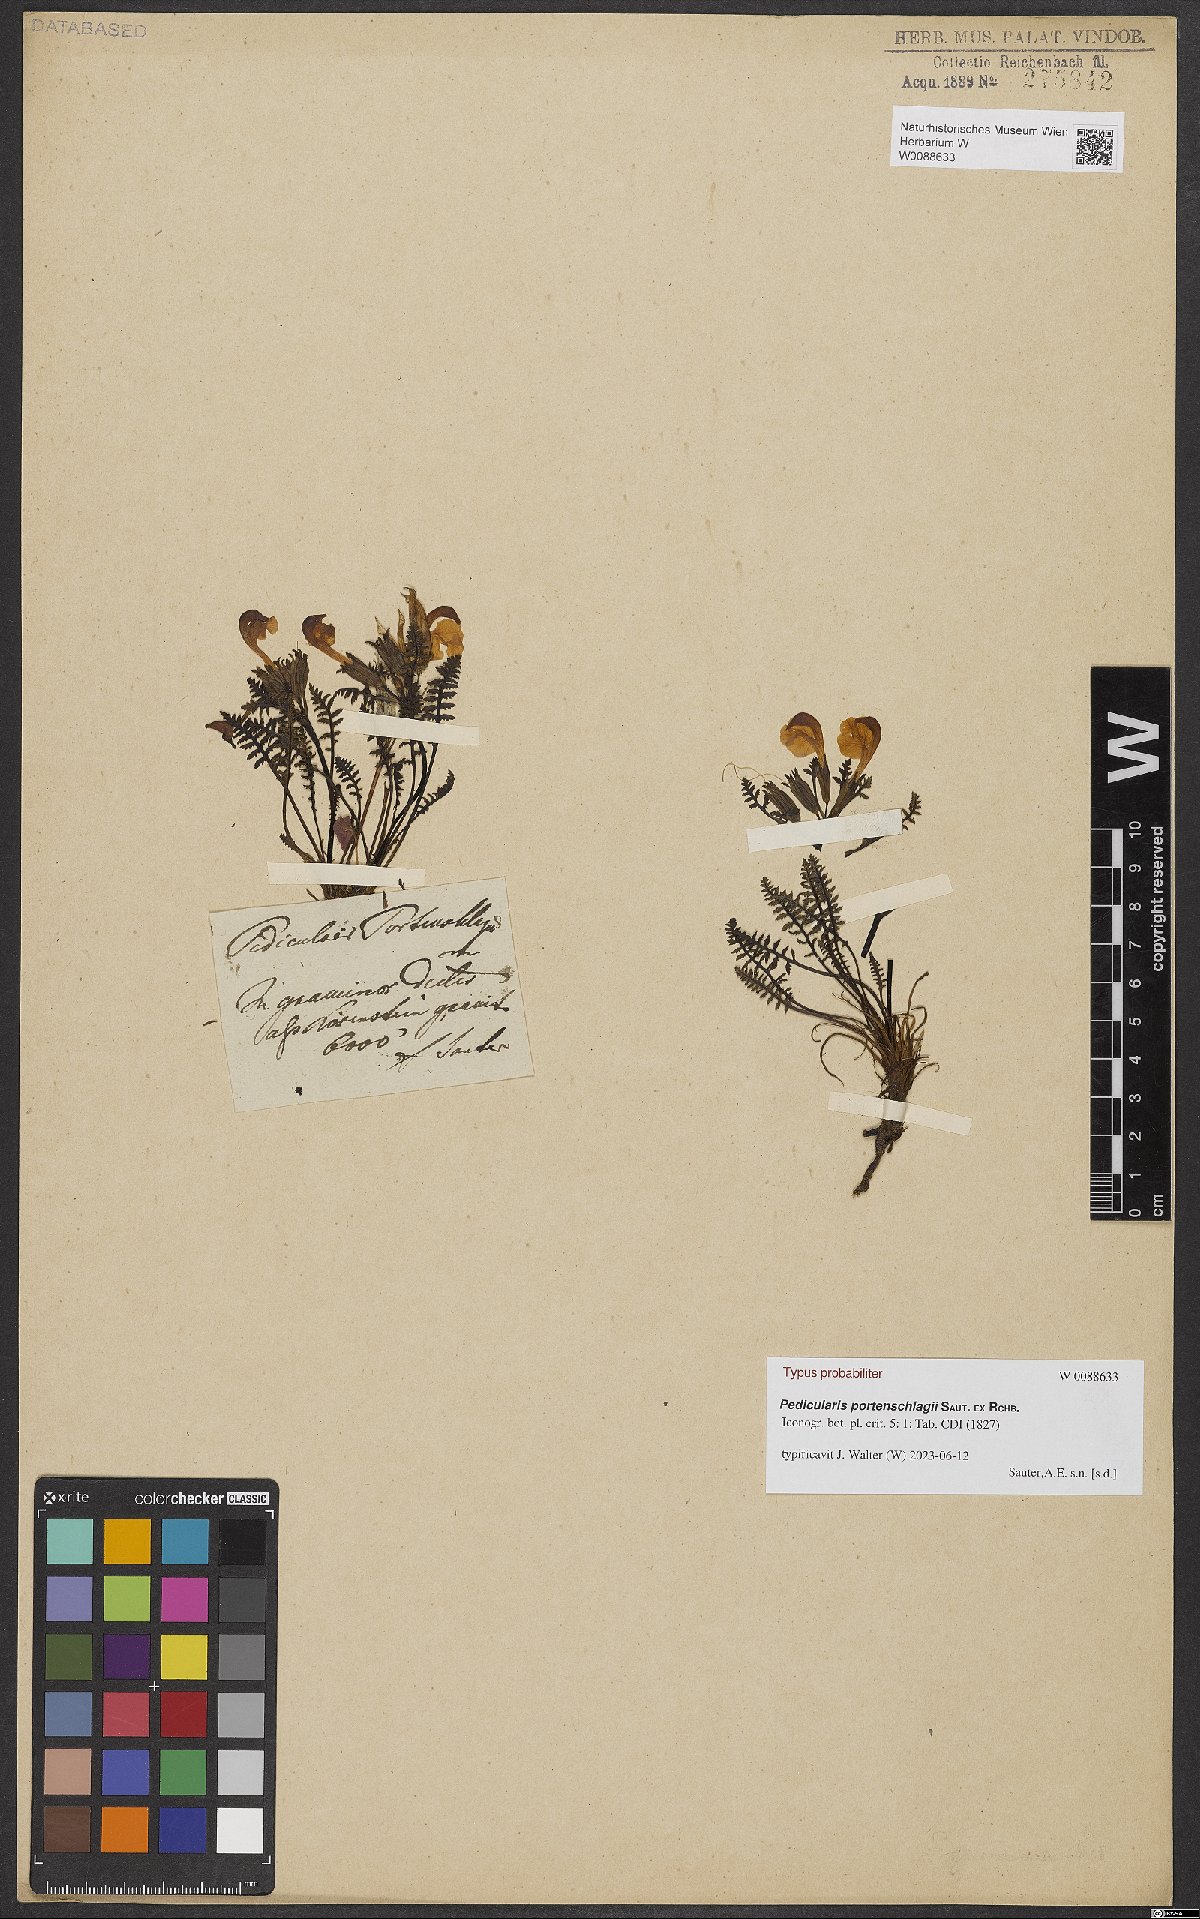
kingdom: Plantae
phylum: Tracheophyta
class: Magnoliopsida
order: Lamiales
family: Orobanchaceae
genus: Pedicularis
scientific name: Pedicularis portenschlagii
